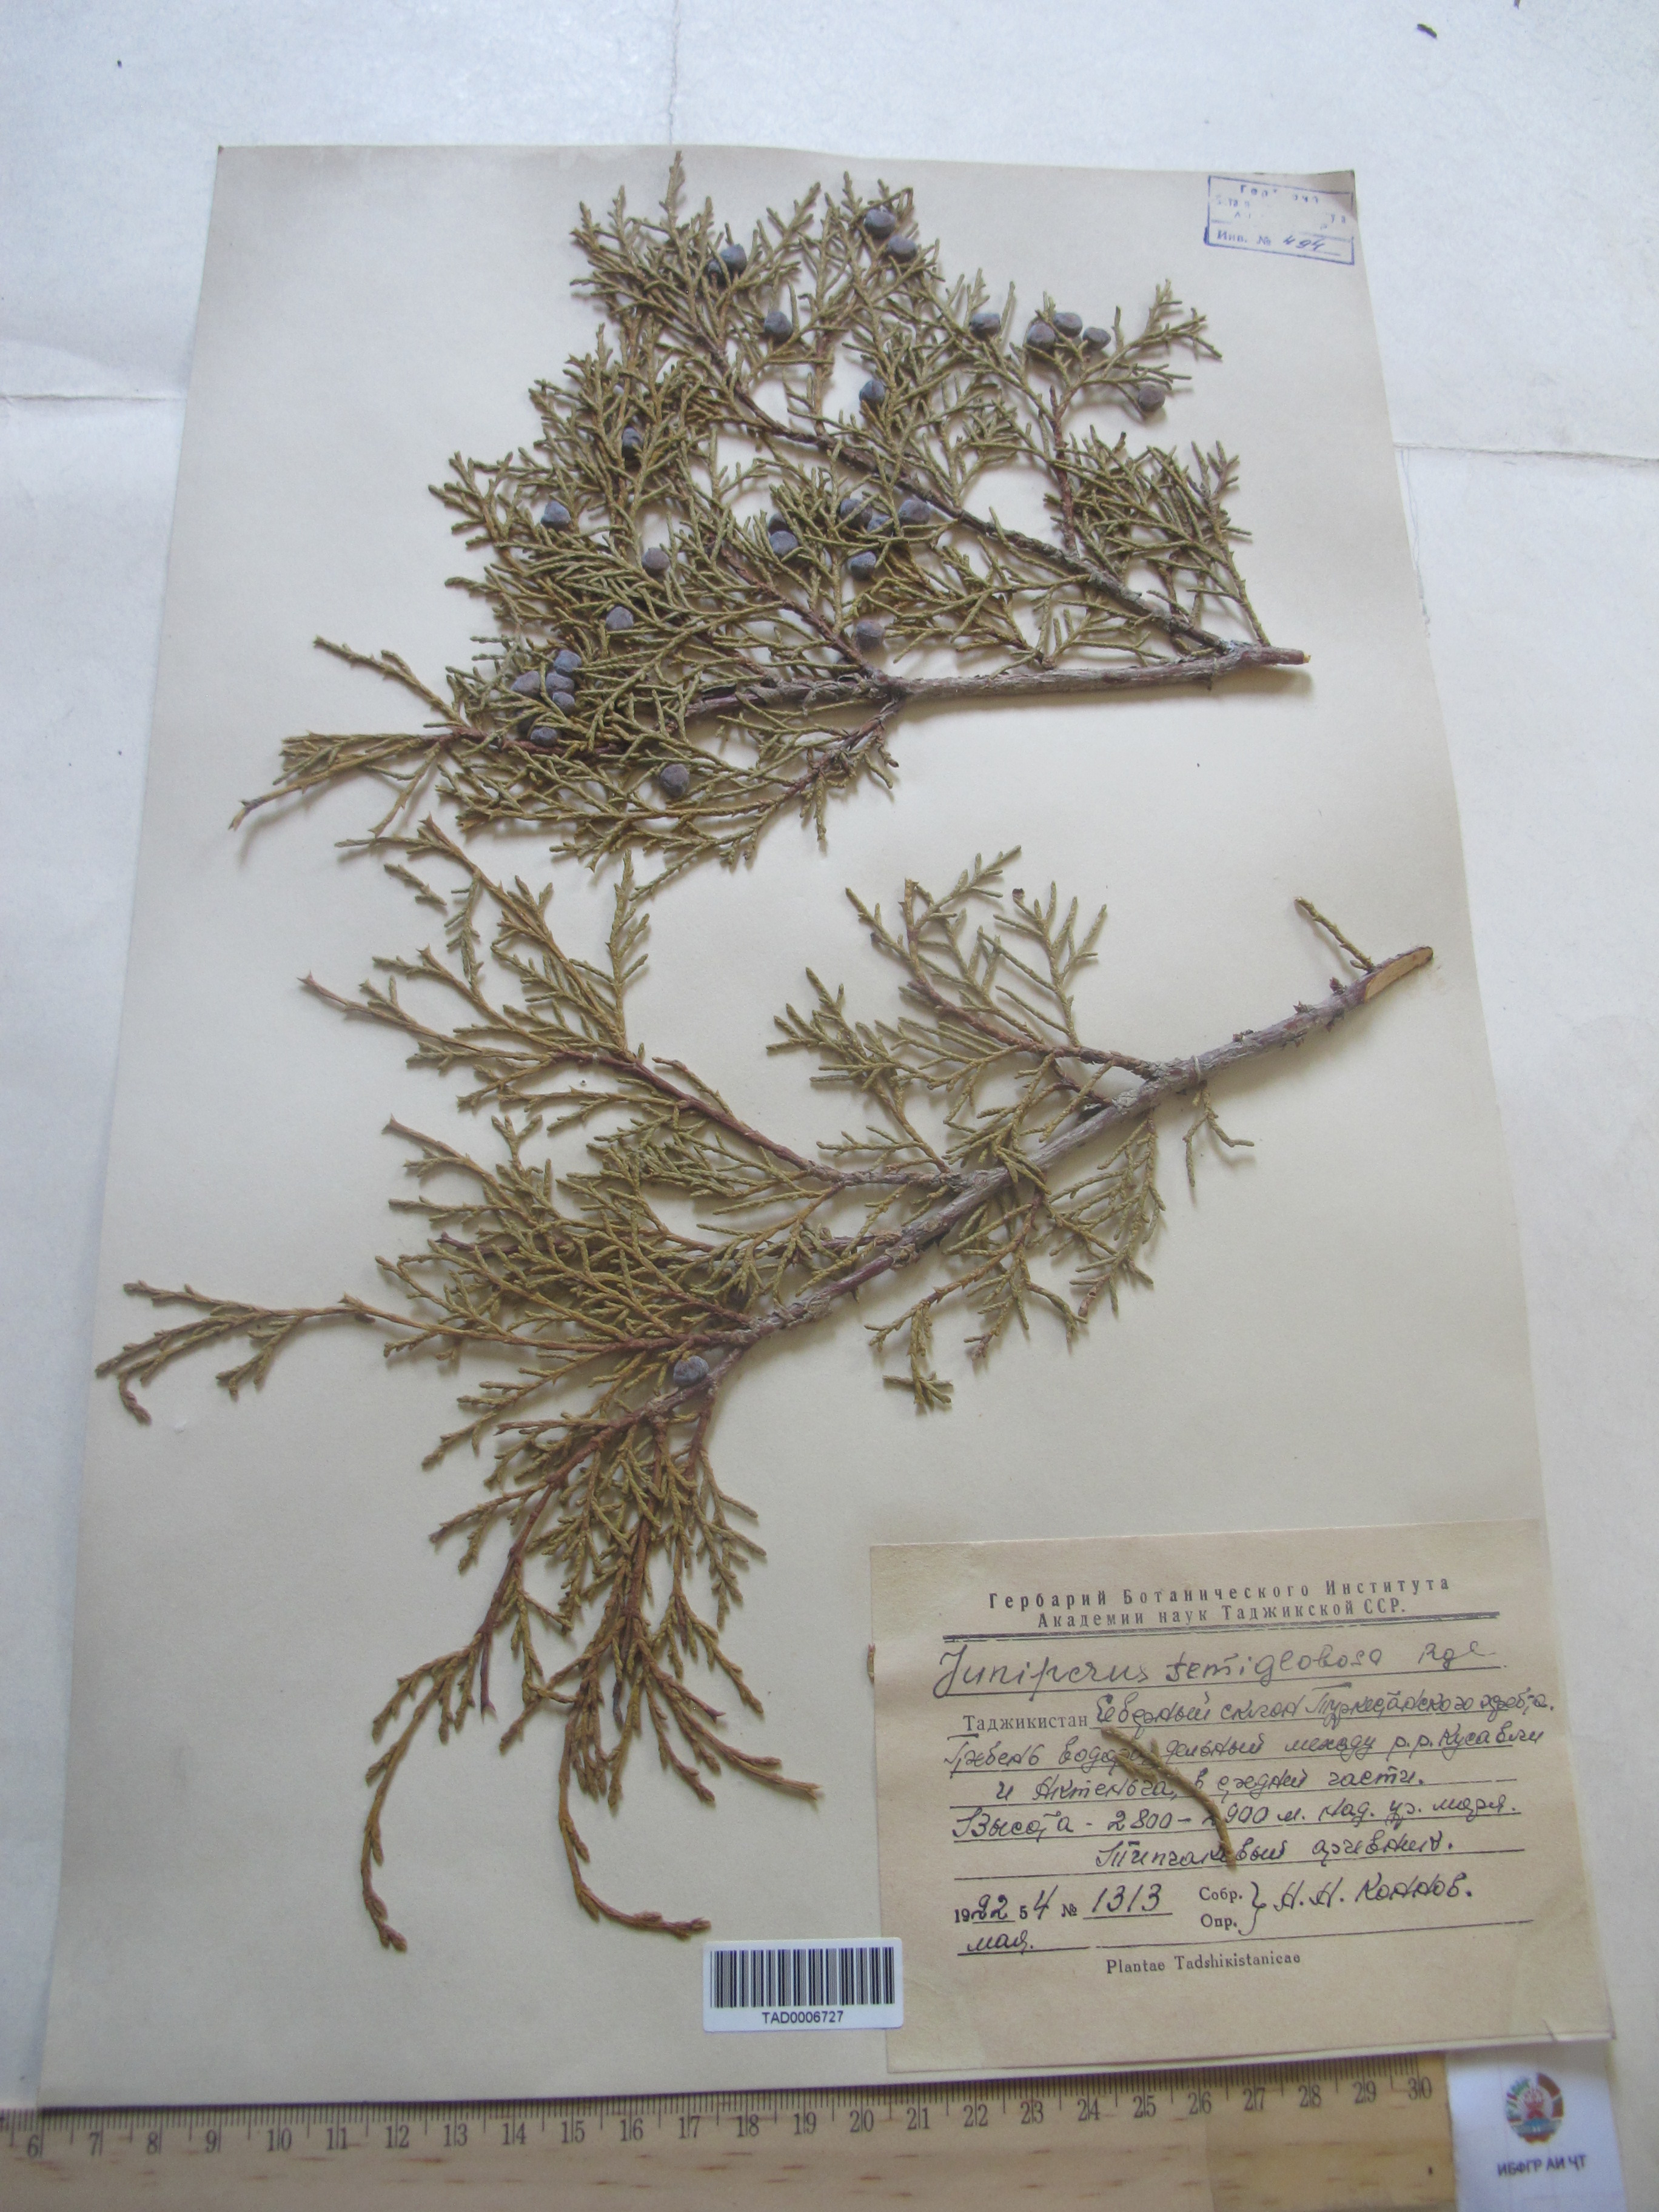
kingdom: Plantae
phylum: Tracheophyta
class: Pinopsida
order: Pinales
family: Cupressaceae
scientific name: Cupressaceae
